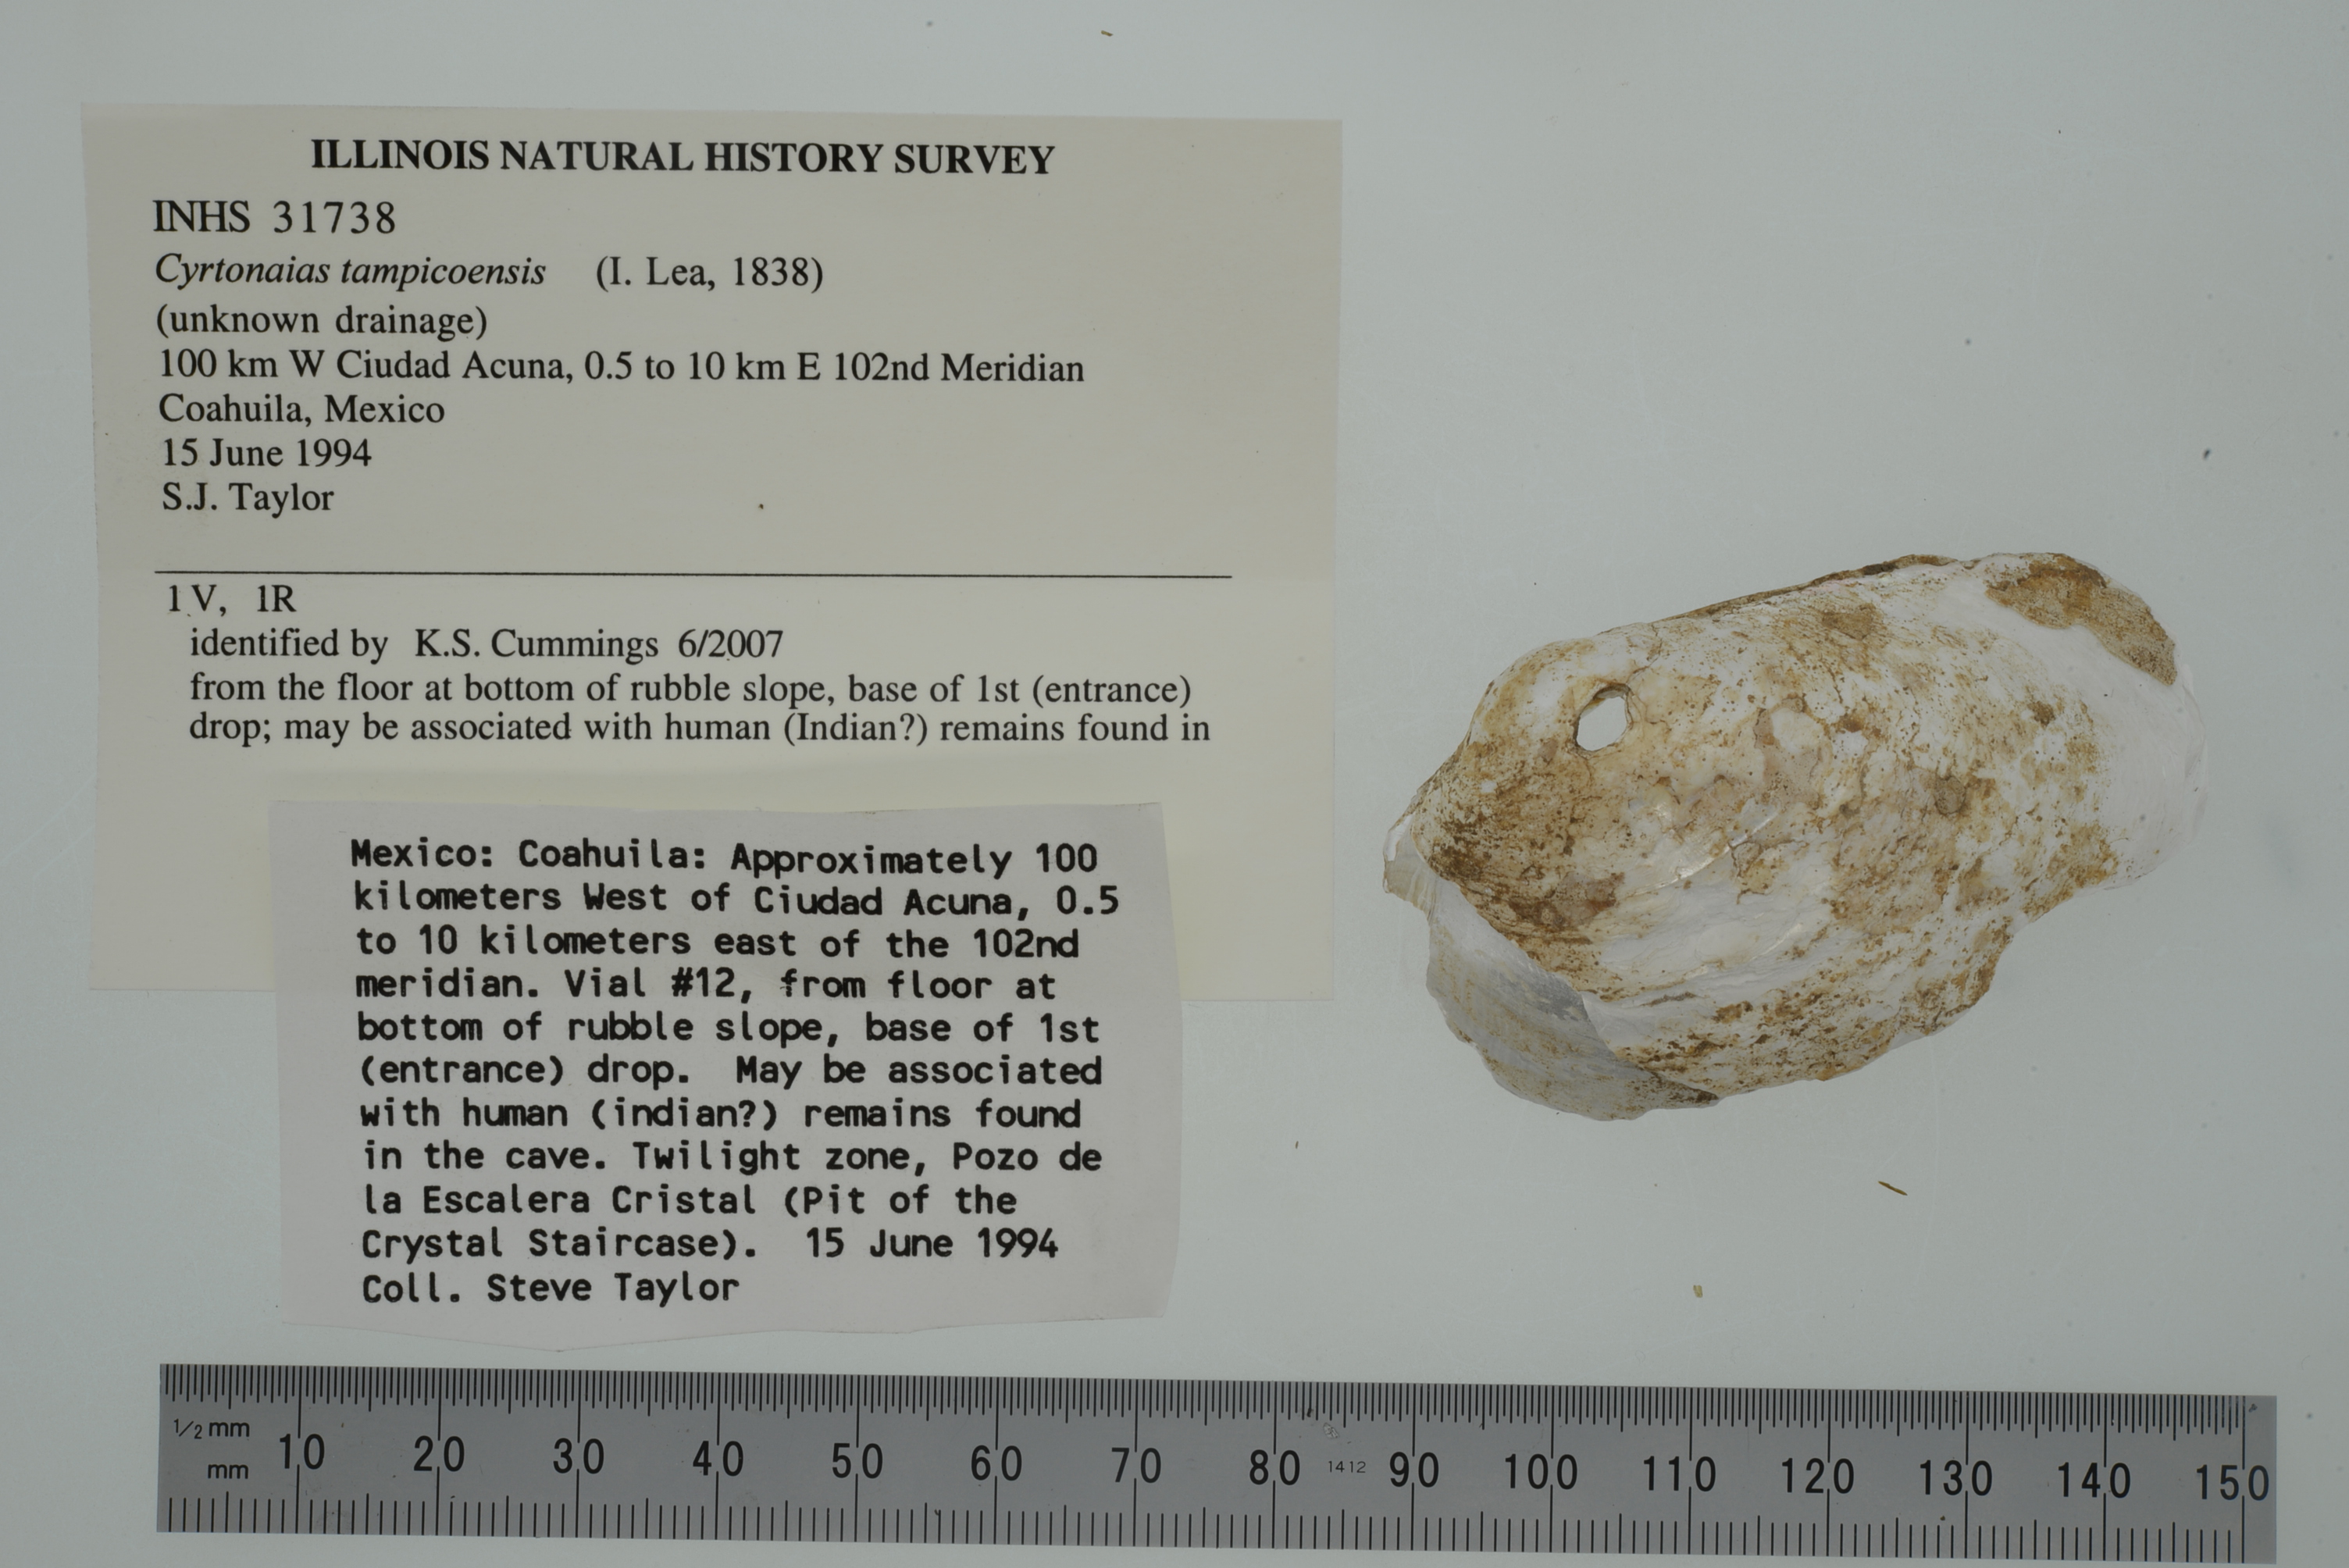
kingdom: Animalia
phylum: Mollusca
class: Bivalvia
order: Unionida
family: Unionidae
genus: Cyrtonaias
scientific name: Cyrtonaias
